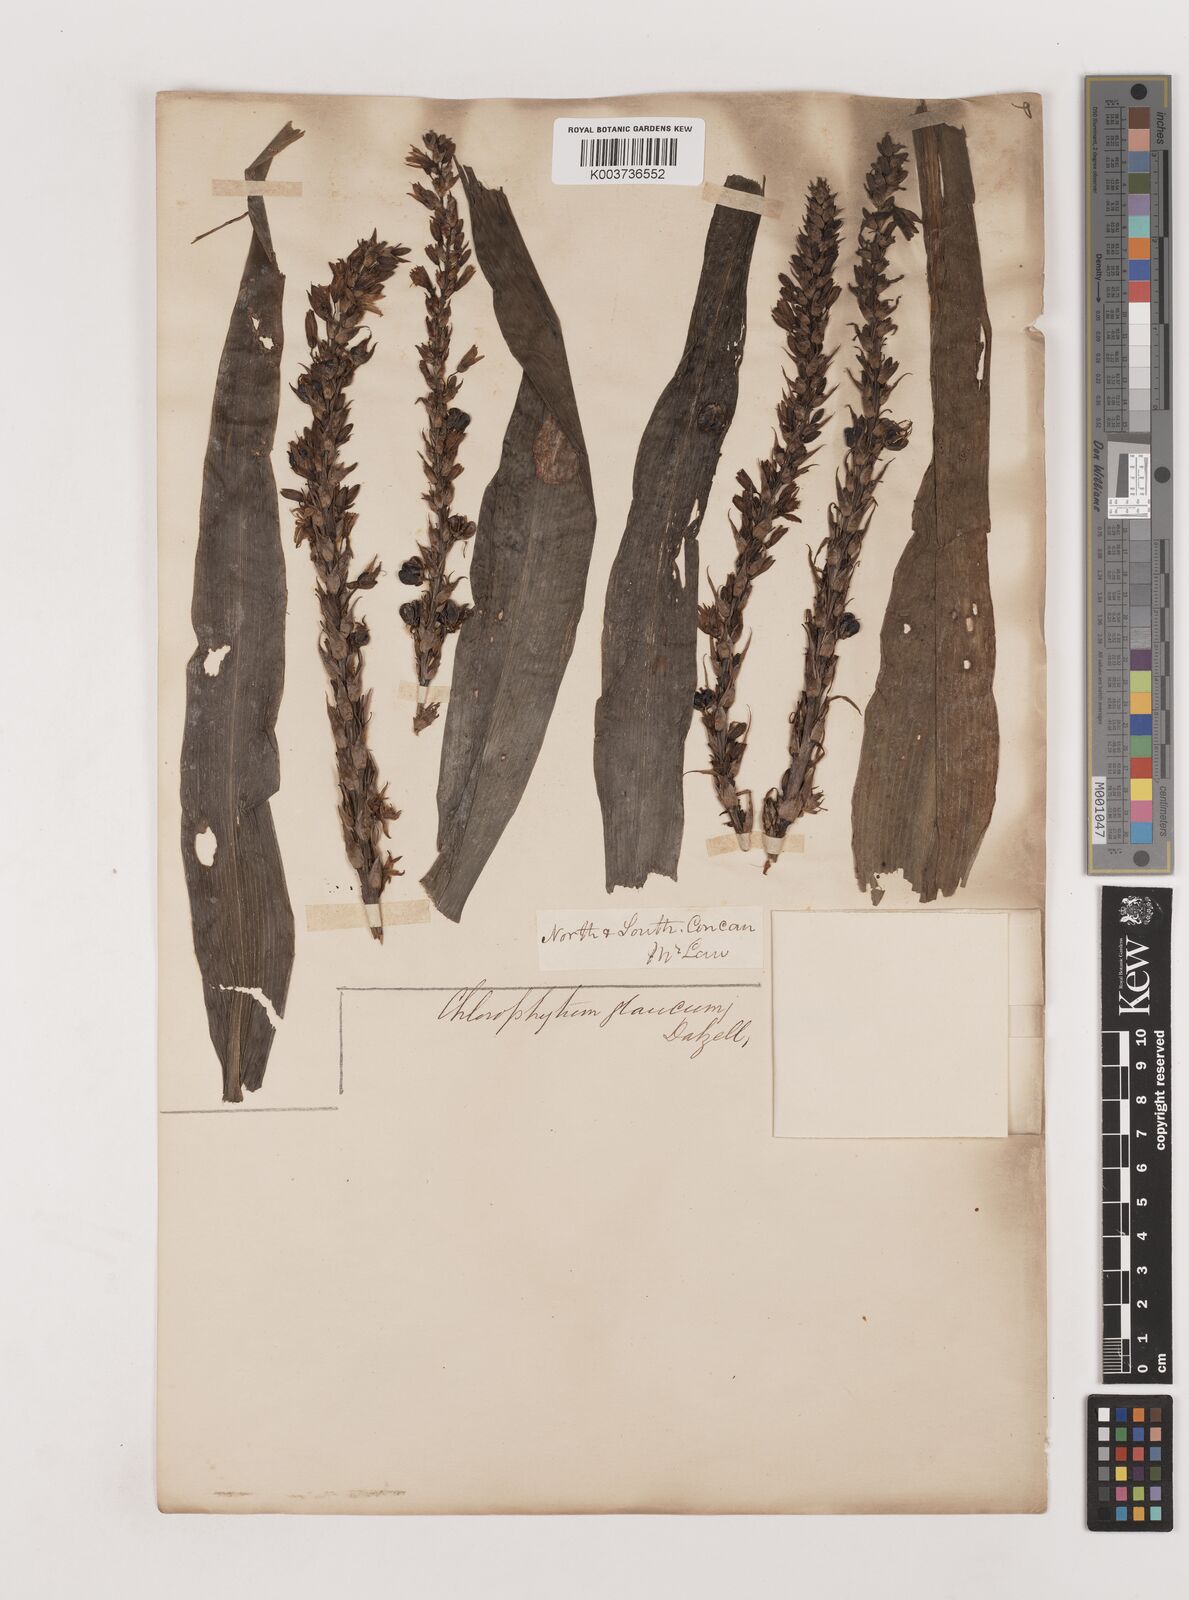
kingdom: Plantae
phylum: Tracheophyta
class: Liliopsida
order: Asparagales
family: Asparagaceae
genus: Chlorophytum
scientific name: Chlorophytum glaucum
